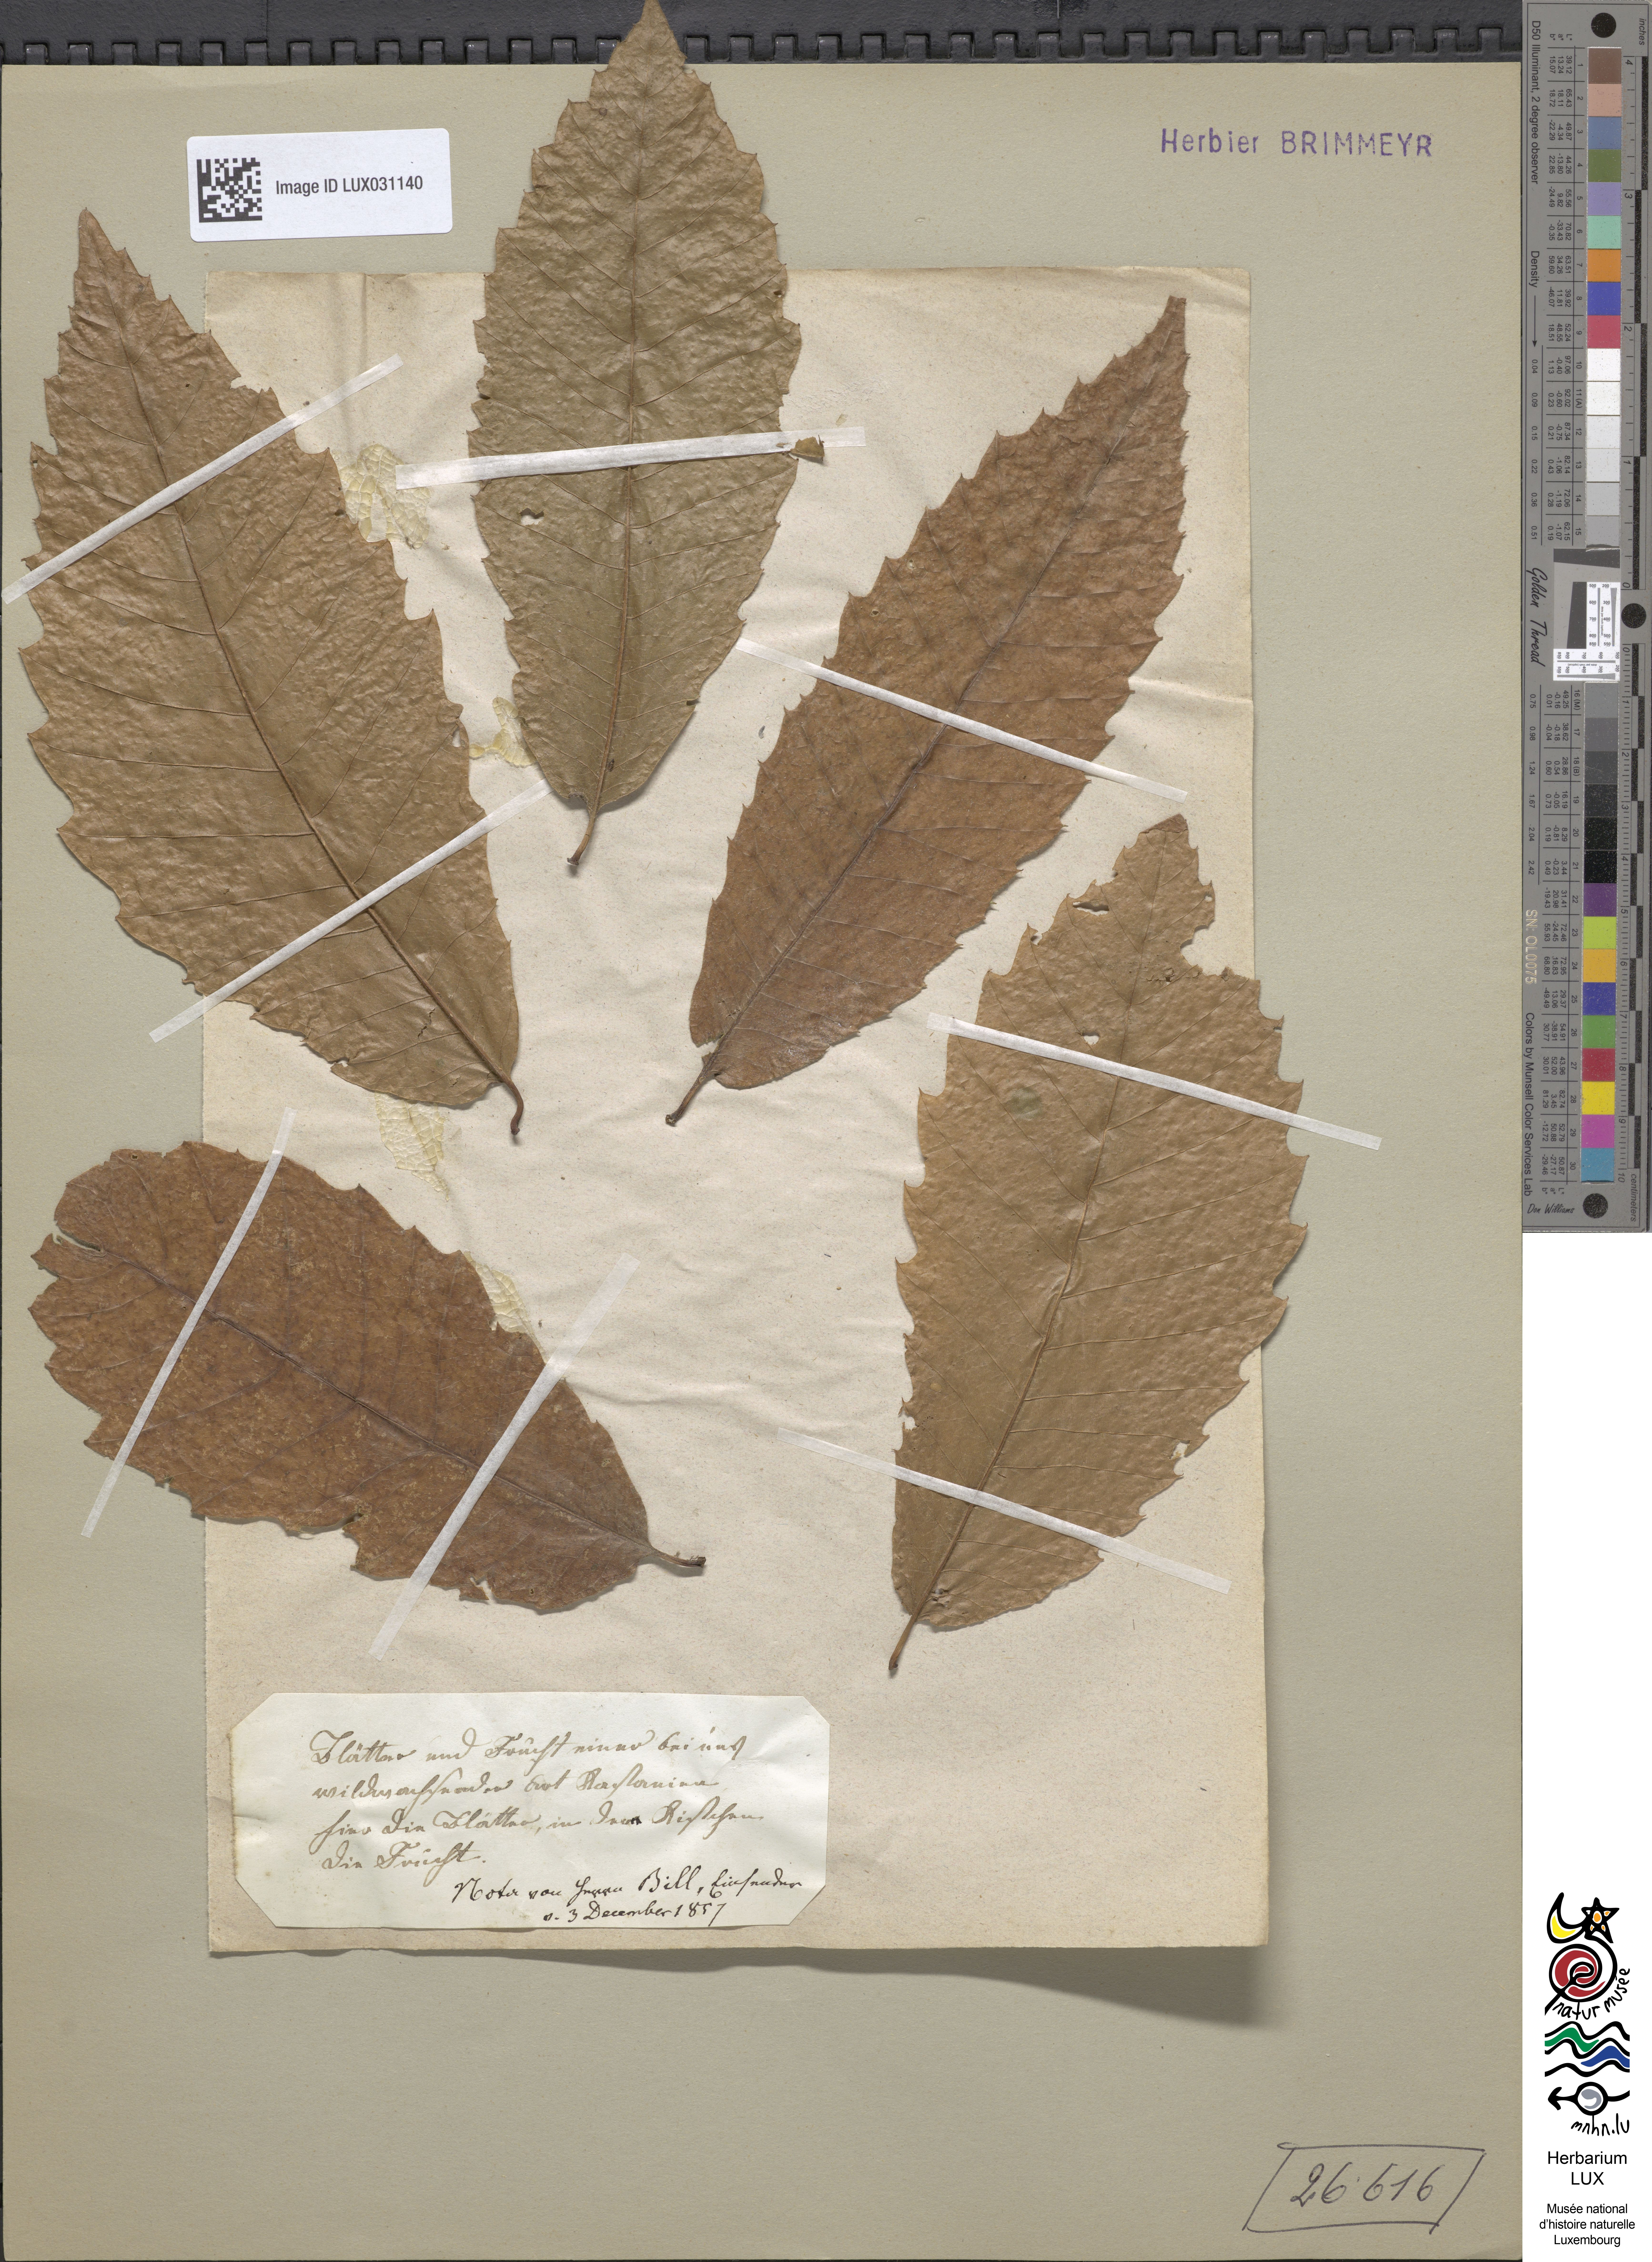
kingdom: Plantae
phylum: Tracheophyta
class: Magnoliopsida
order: Fagales
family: Fagaceae
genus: Castanea
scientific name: Castanea sativa
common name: Sweet chestnut
